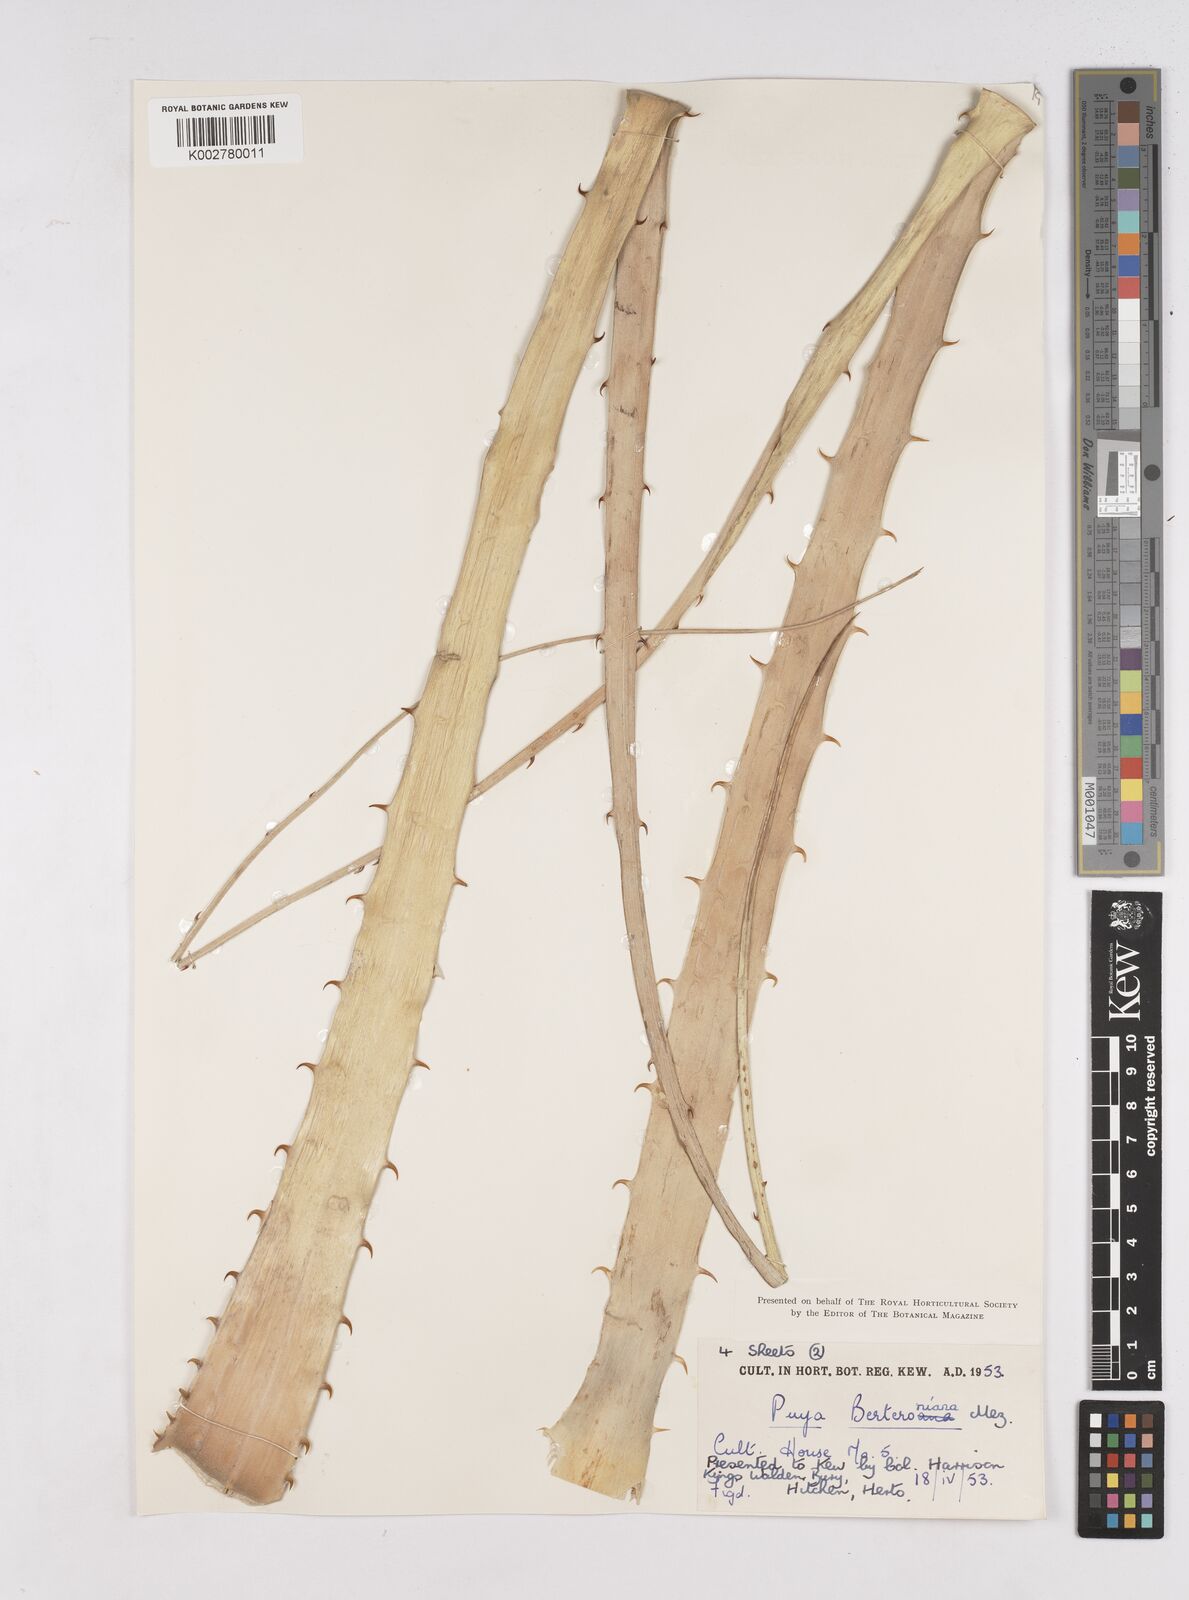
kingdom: Plantae
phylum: Tracheophyta
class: Liliopsida
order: Poales
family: Bromeliaceae
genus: Puya
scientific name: Puya berteroniana
